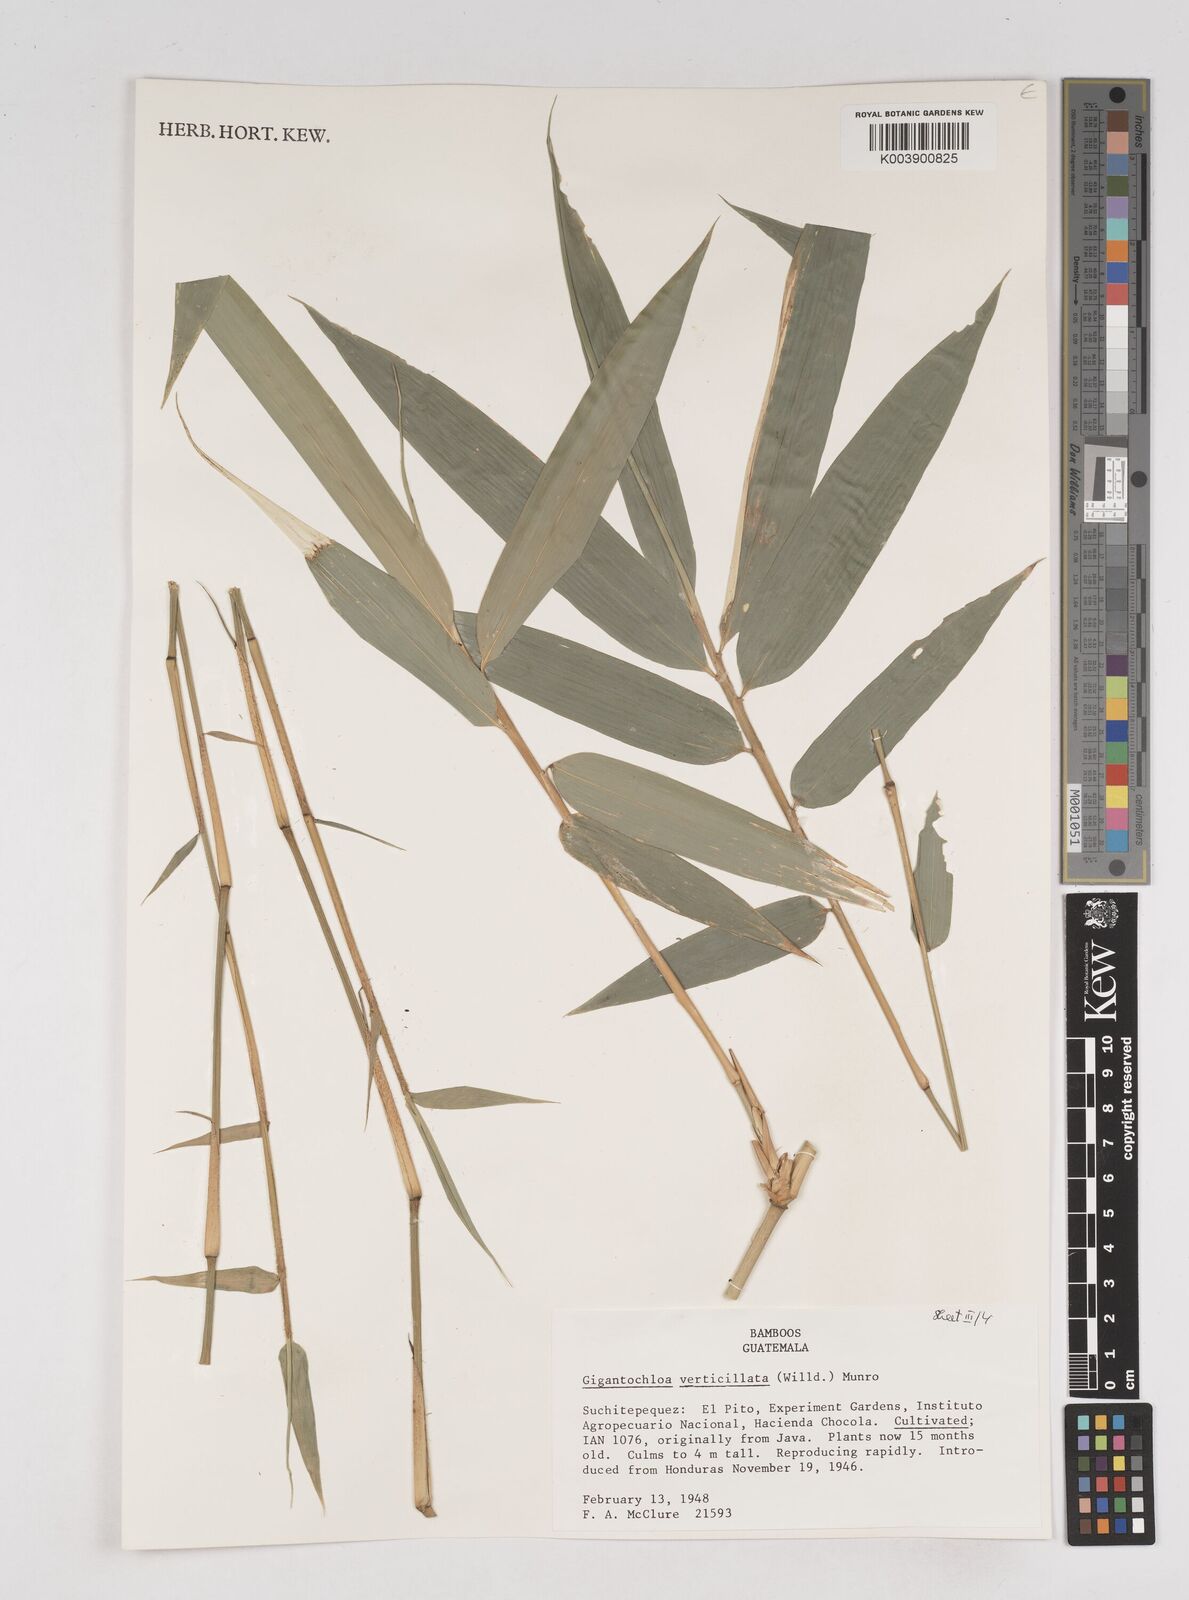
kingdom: Plantae
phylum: Tracheophyta
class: Liliopsida
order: Poales
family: Poaceae
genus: Gigantochloa
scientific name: Gigantochloa verticillata
